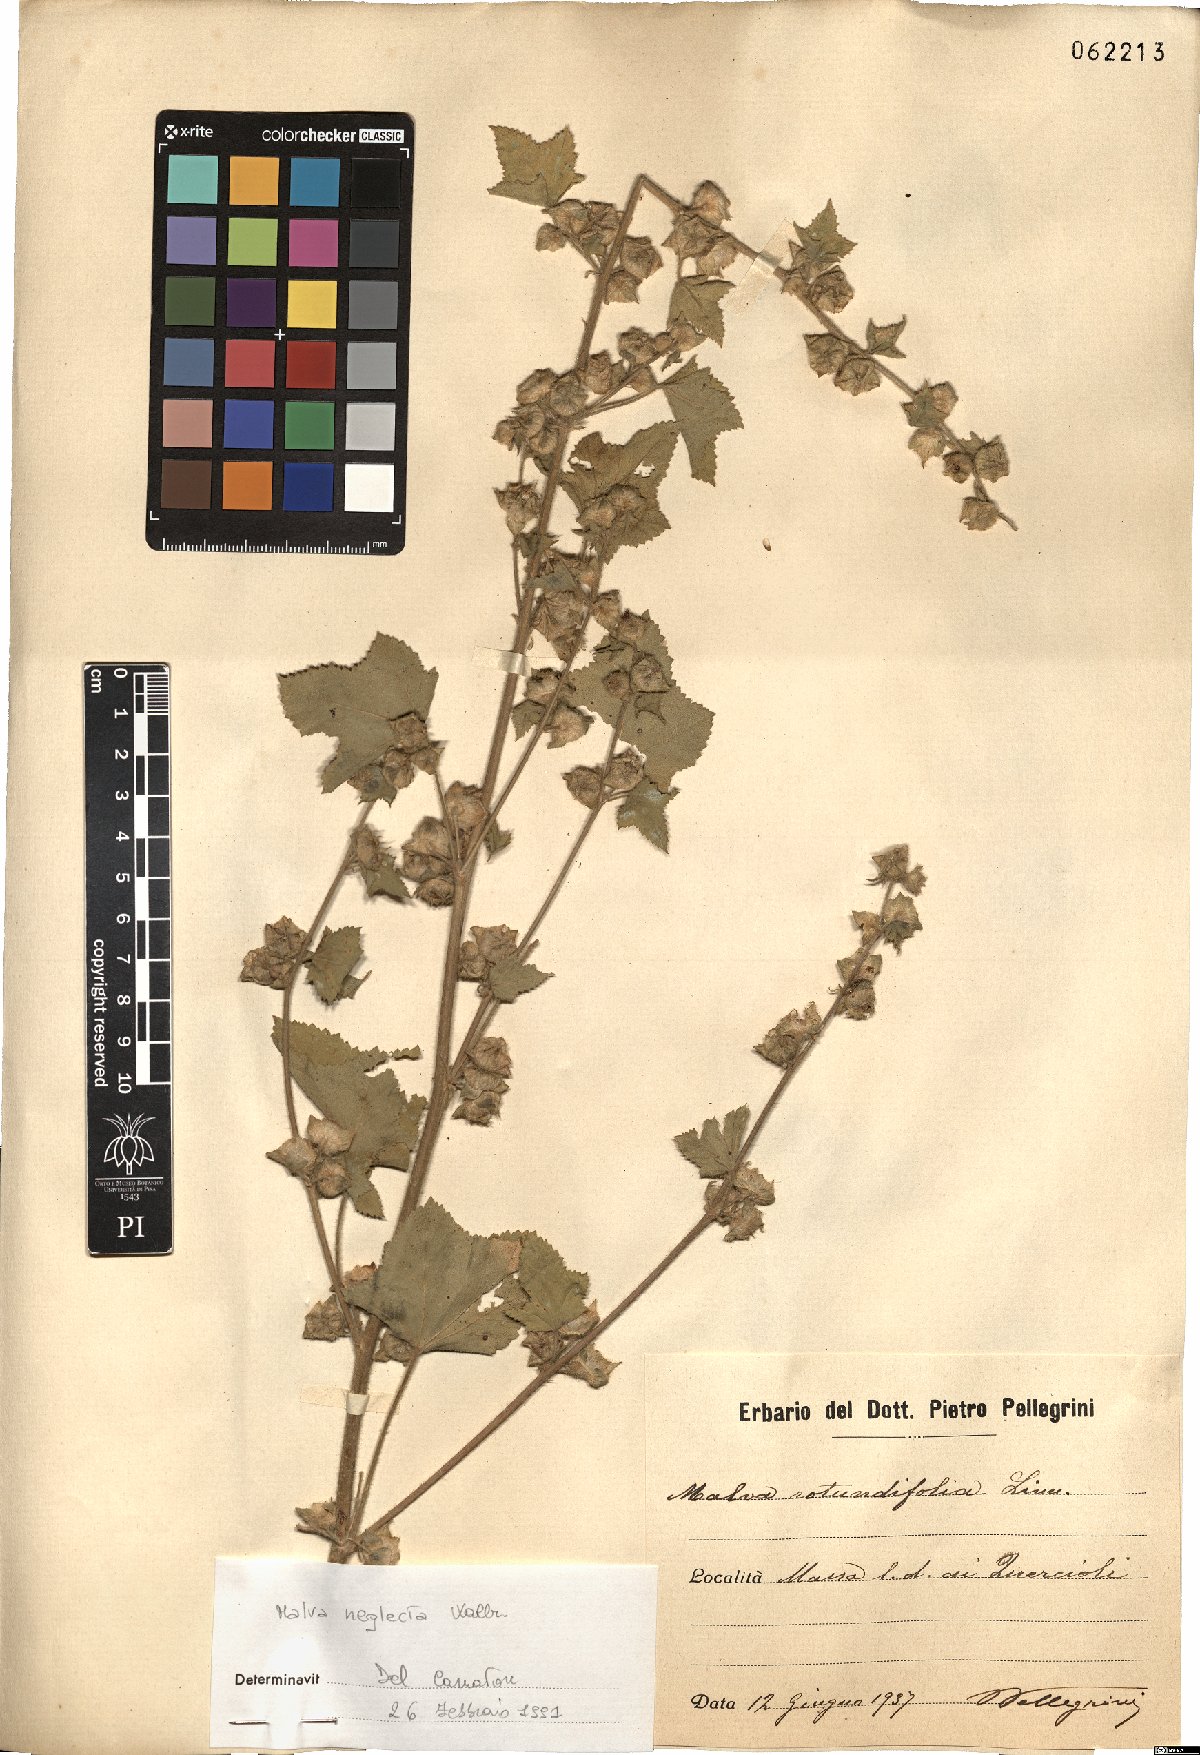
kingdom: Plantae
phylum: Tracheophyta
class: Magnoliopsida
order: Malvales
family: Malvaceae
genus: Malva
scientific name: Malva neglecta
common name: Common mallow
